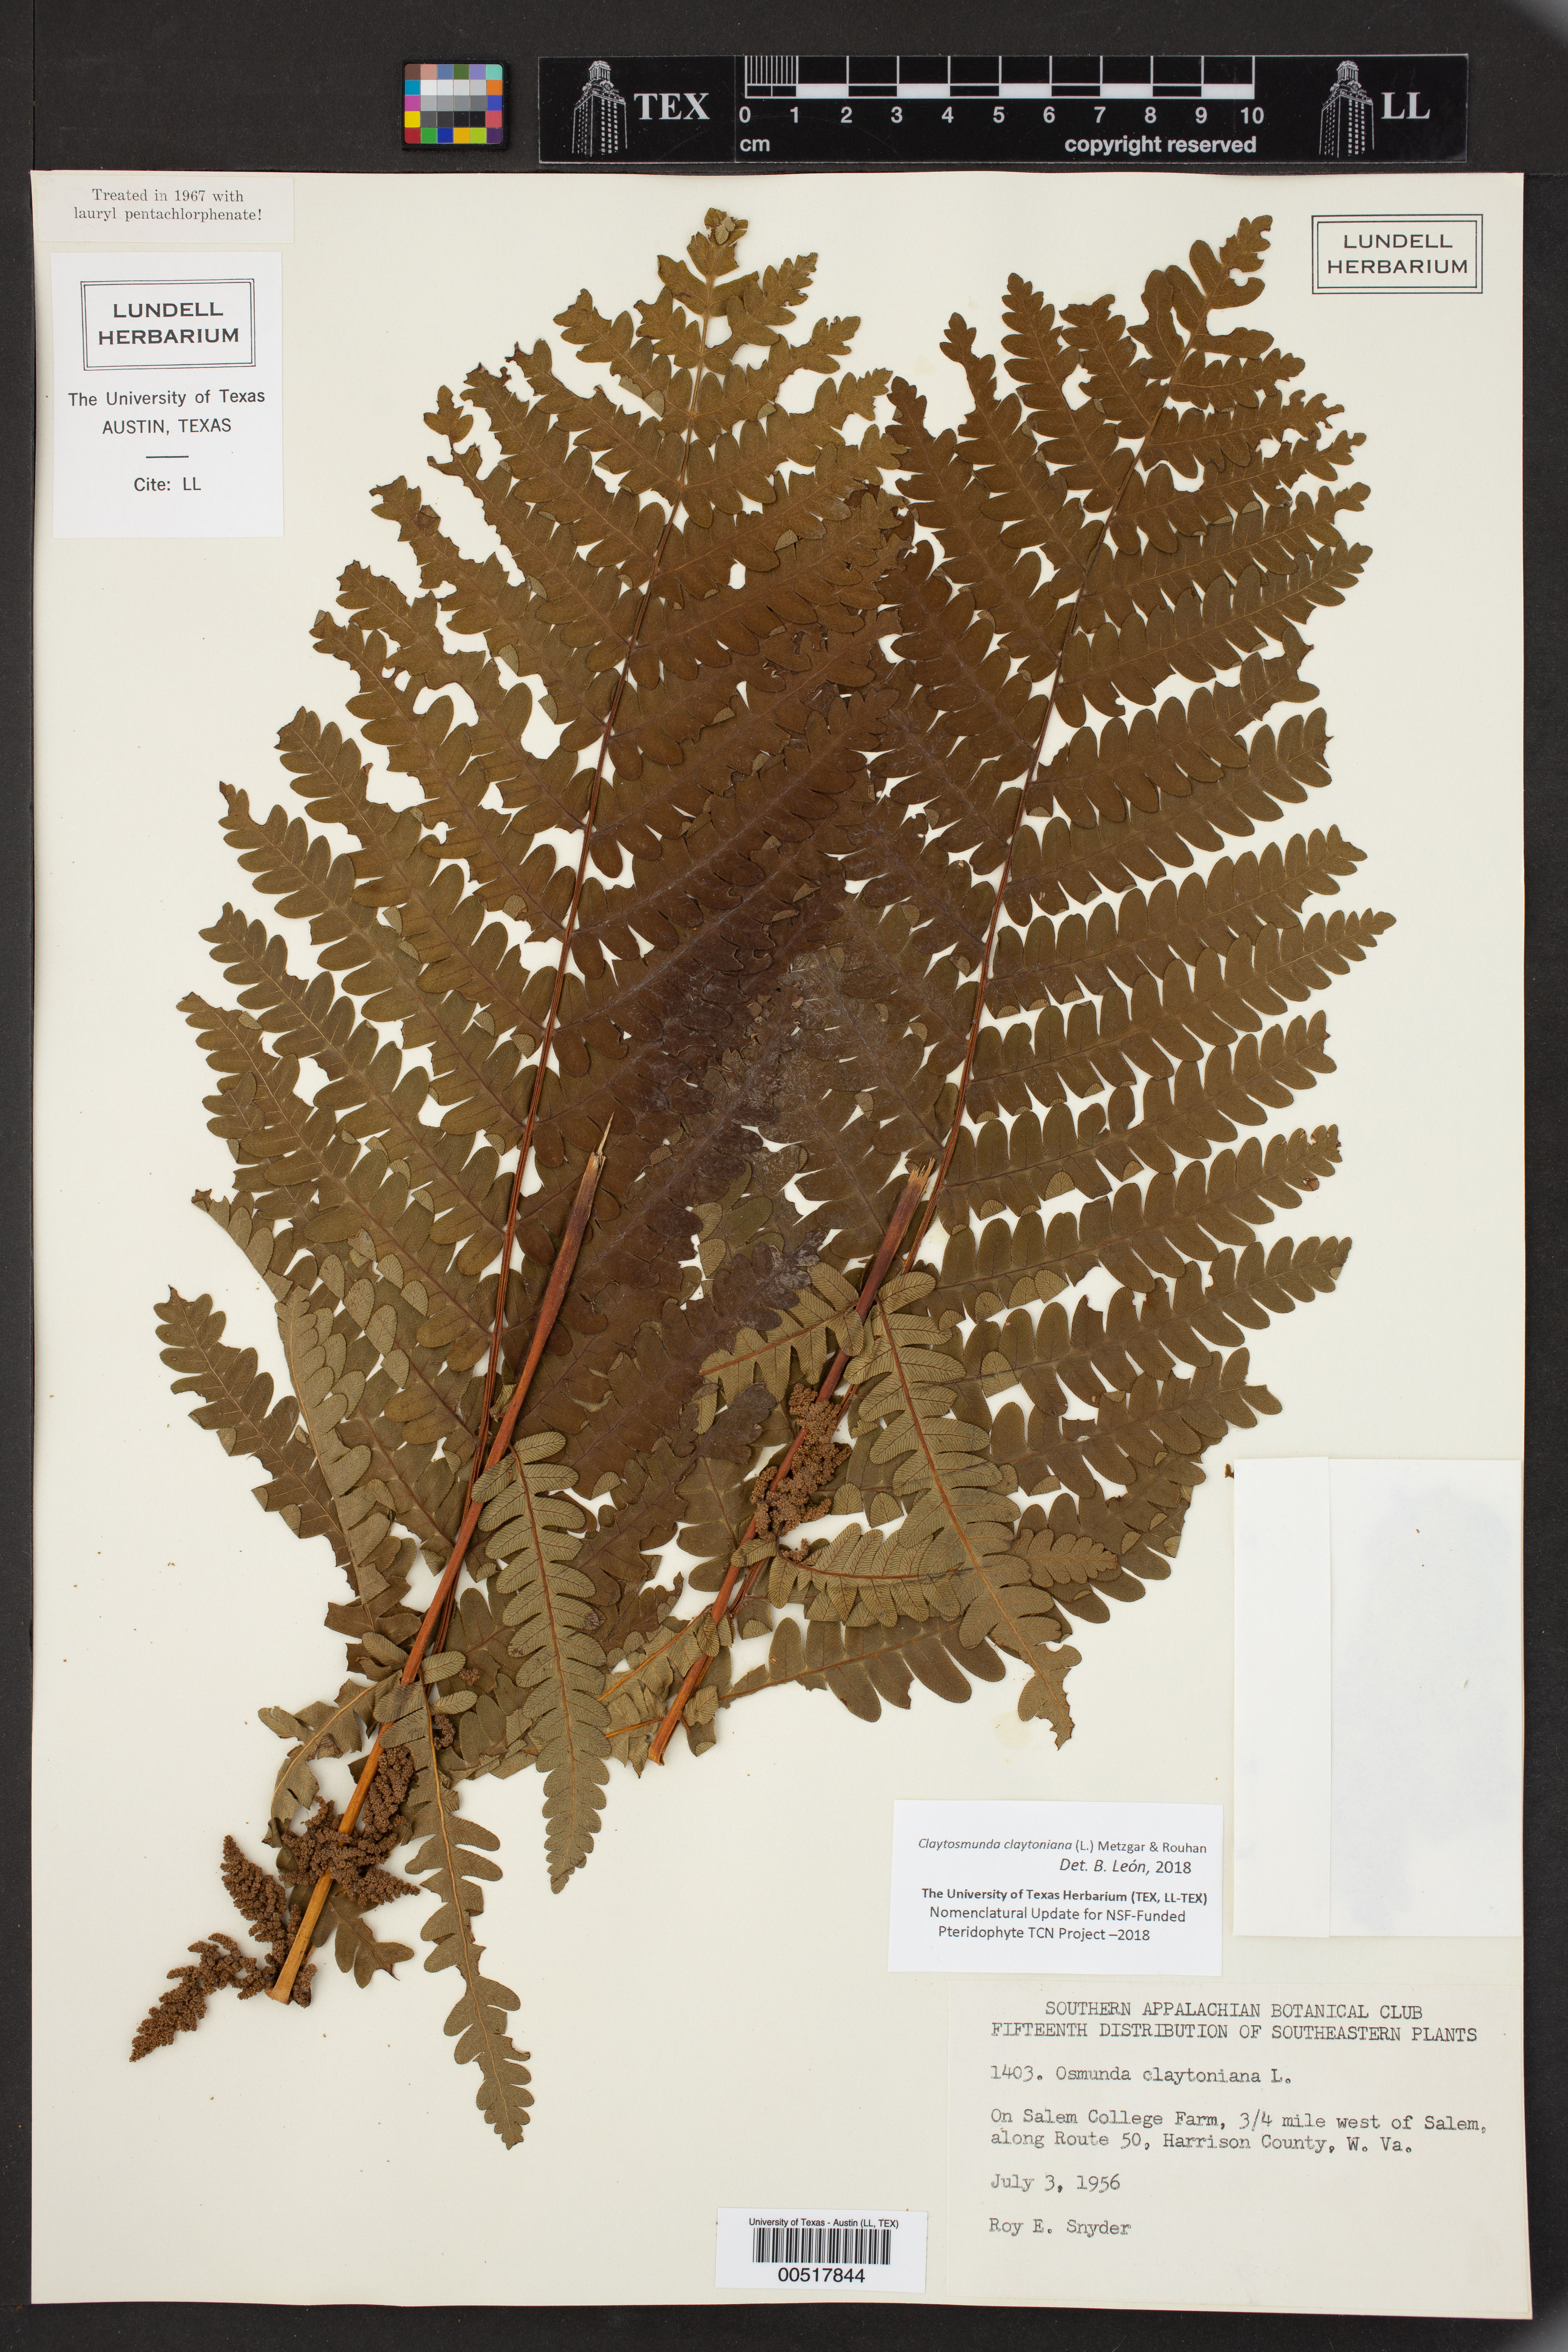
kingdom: Plantae
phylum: Tracheophyta
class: Polypodiopsida
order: Osmundales
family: Osmundaceae
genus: Claytosmunda
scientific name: Claytosmunda claytoniana
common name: Clayton's fern
